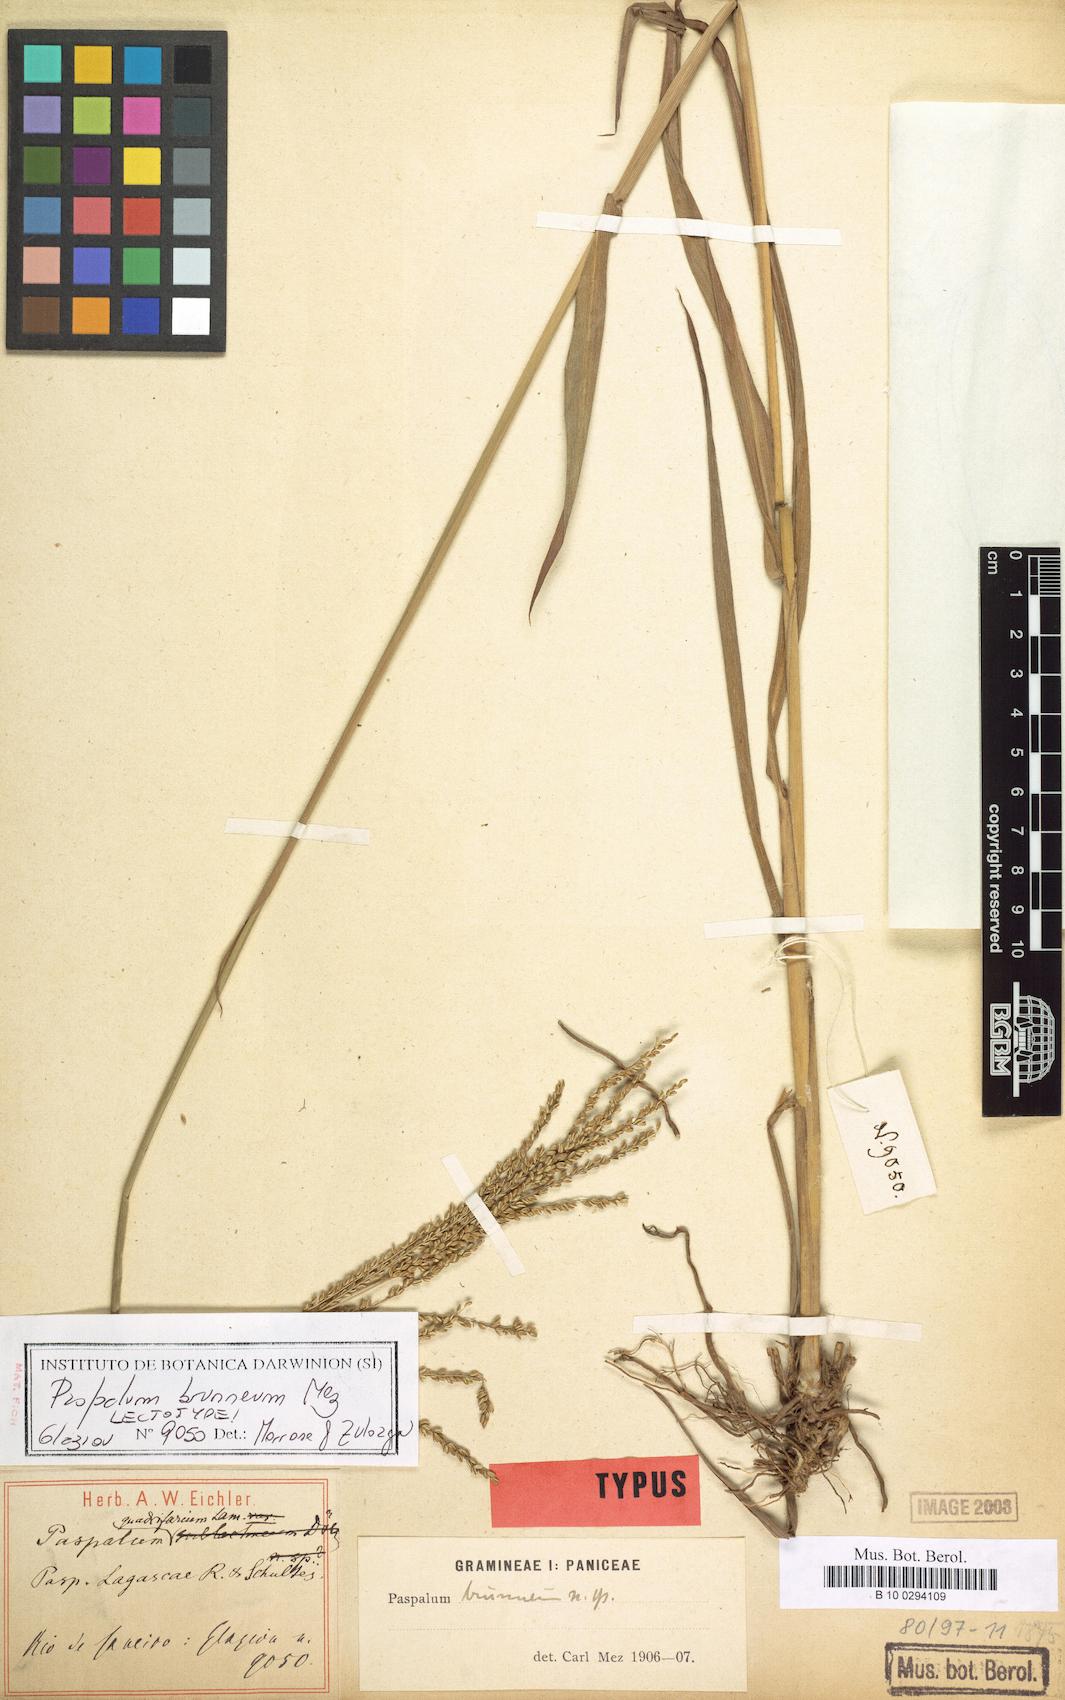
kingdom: Plantae
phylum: Tracheophyta
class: Liliopsida
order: Poales
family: Poaceae
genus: Paspalum
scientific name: Paspalum coryphaeum
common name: Emperor crowngrass
